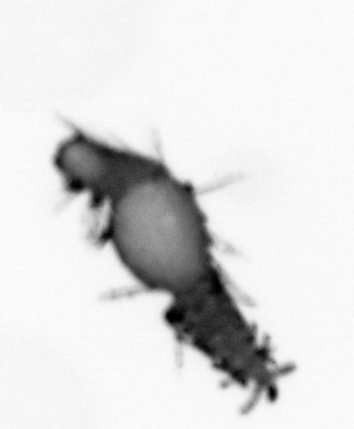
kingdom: Animalia
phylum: Annelida
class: Polychaeta
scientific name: Polychaeta
